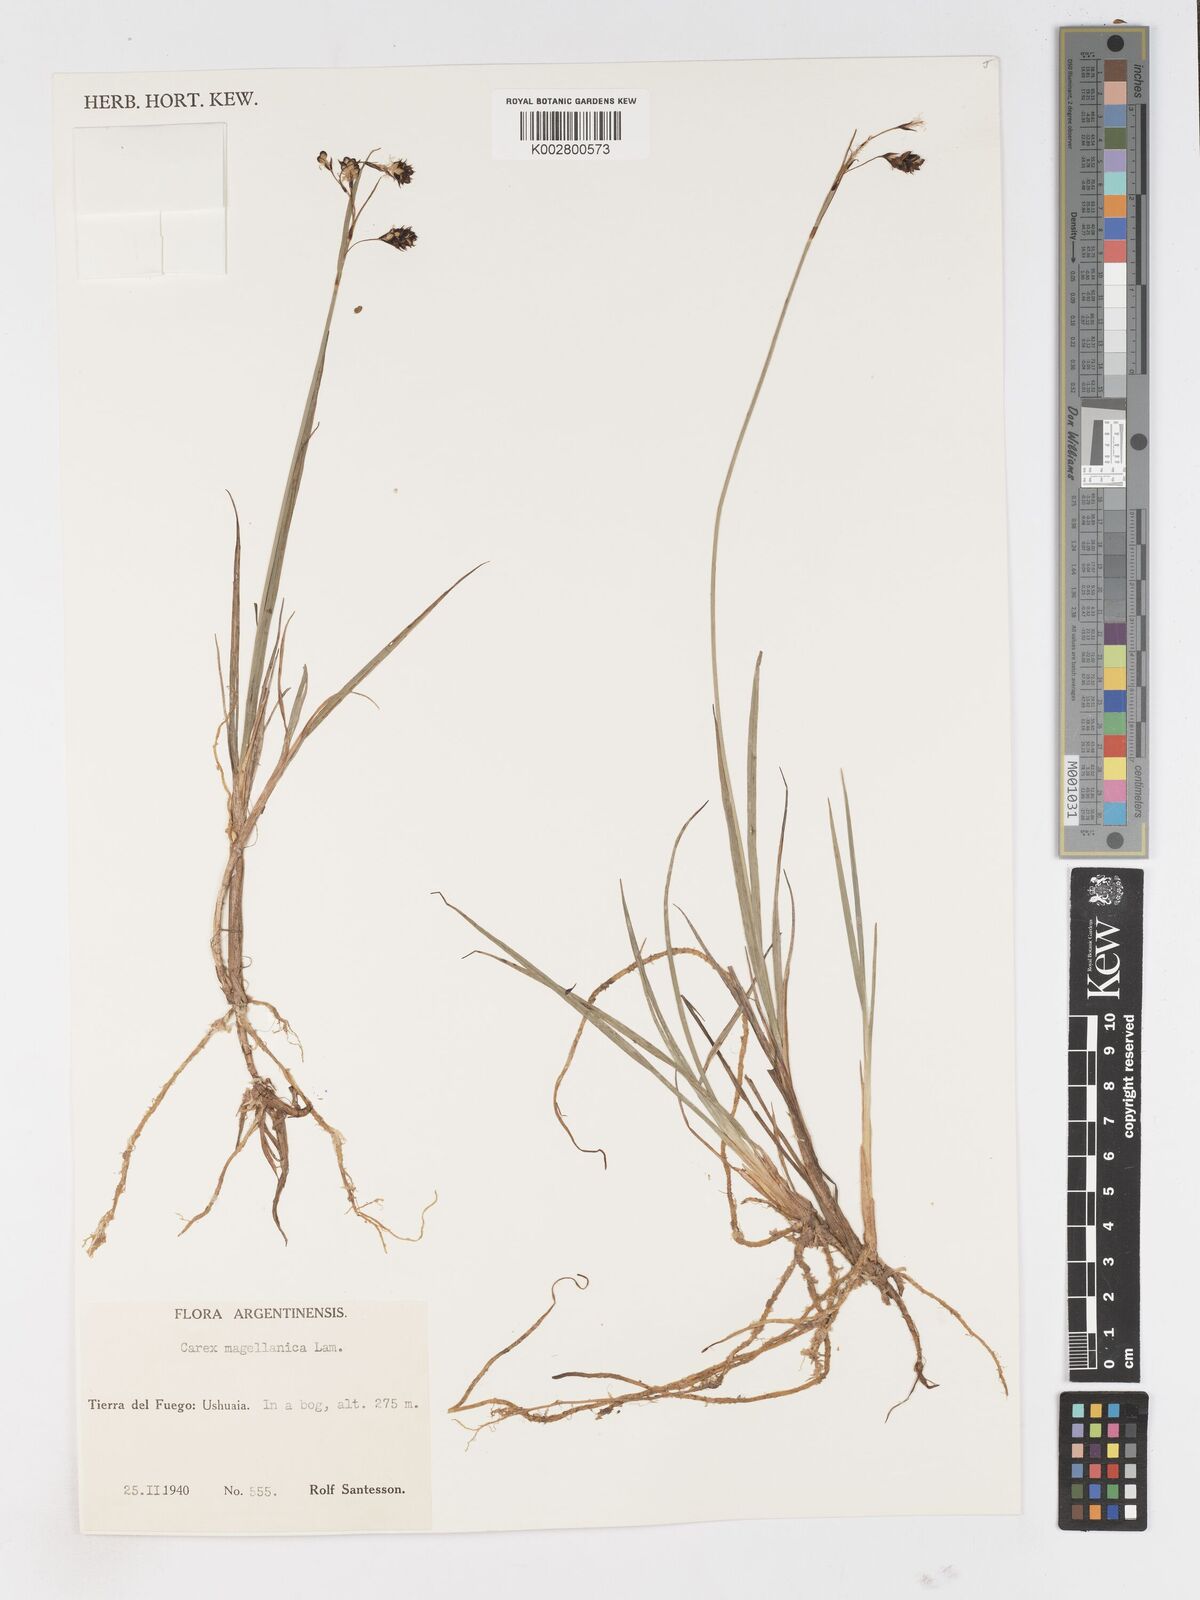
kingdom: Plantae
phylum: Tracheophyta
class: Liliopsida
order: Poales
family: Cyperaceae
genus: Carex
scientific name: Carex magellanica
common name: Bog sedge
